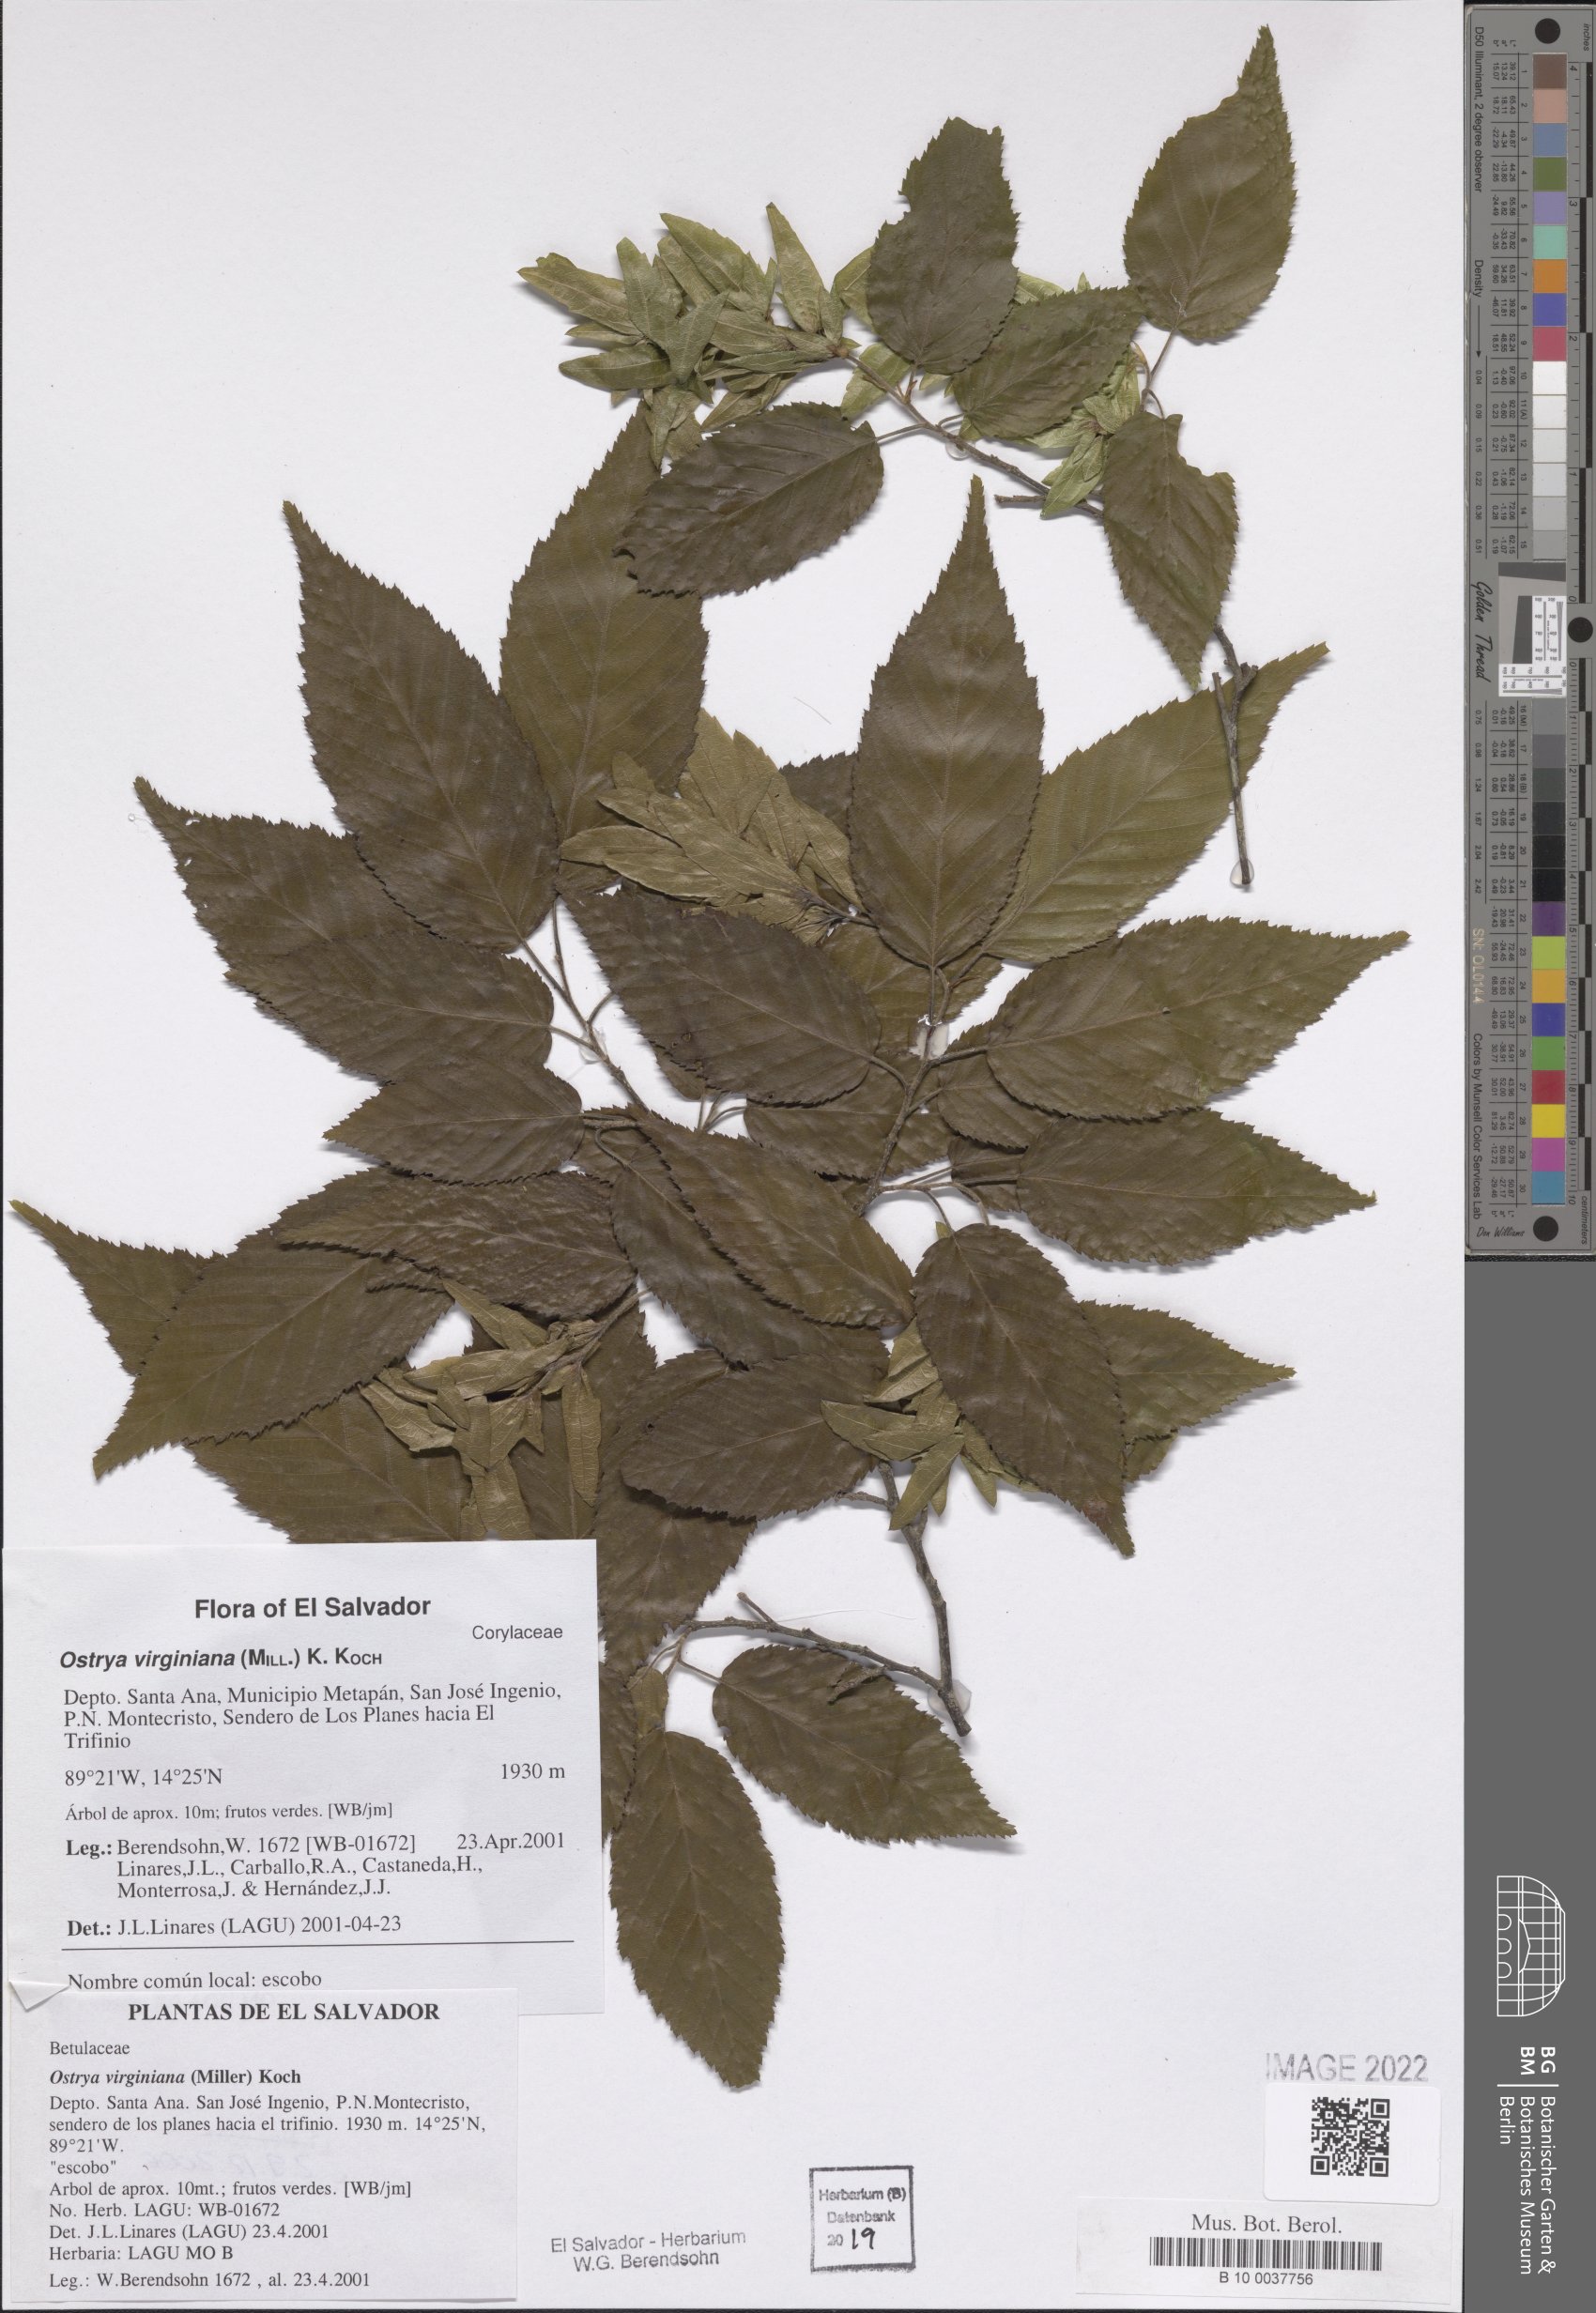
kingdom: Plantae
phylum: Tracheophyta
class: Magnoliopsida
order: Fagales
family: Betulaceae
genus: Ostrya
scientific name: Ostrya virginiana
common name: Ironwood
